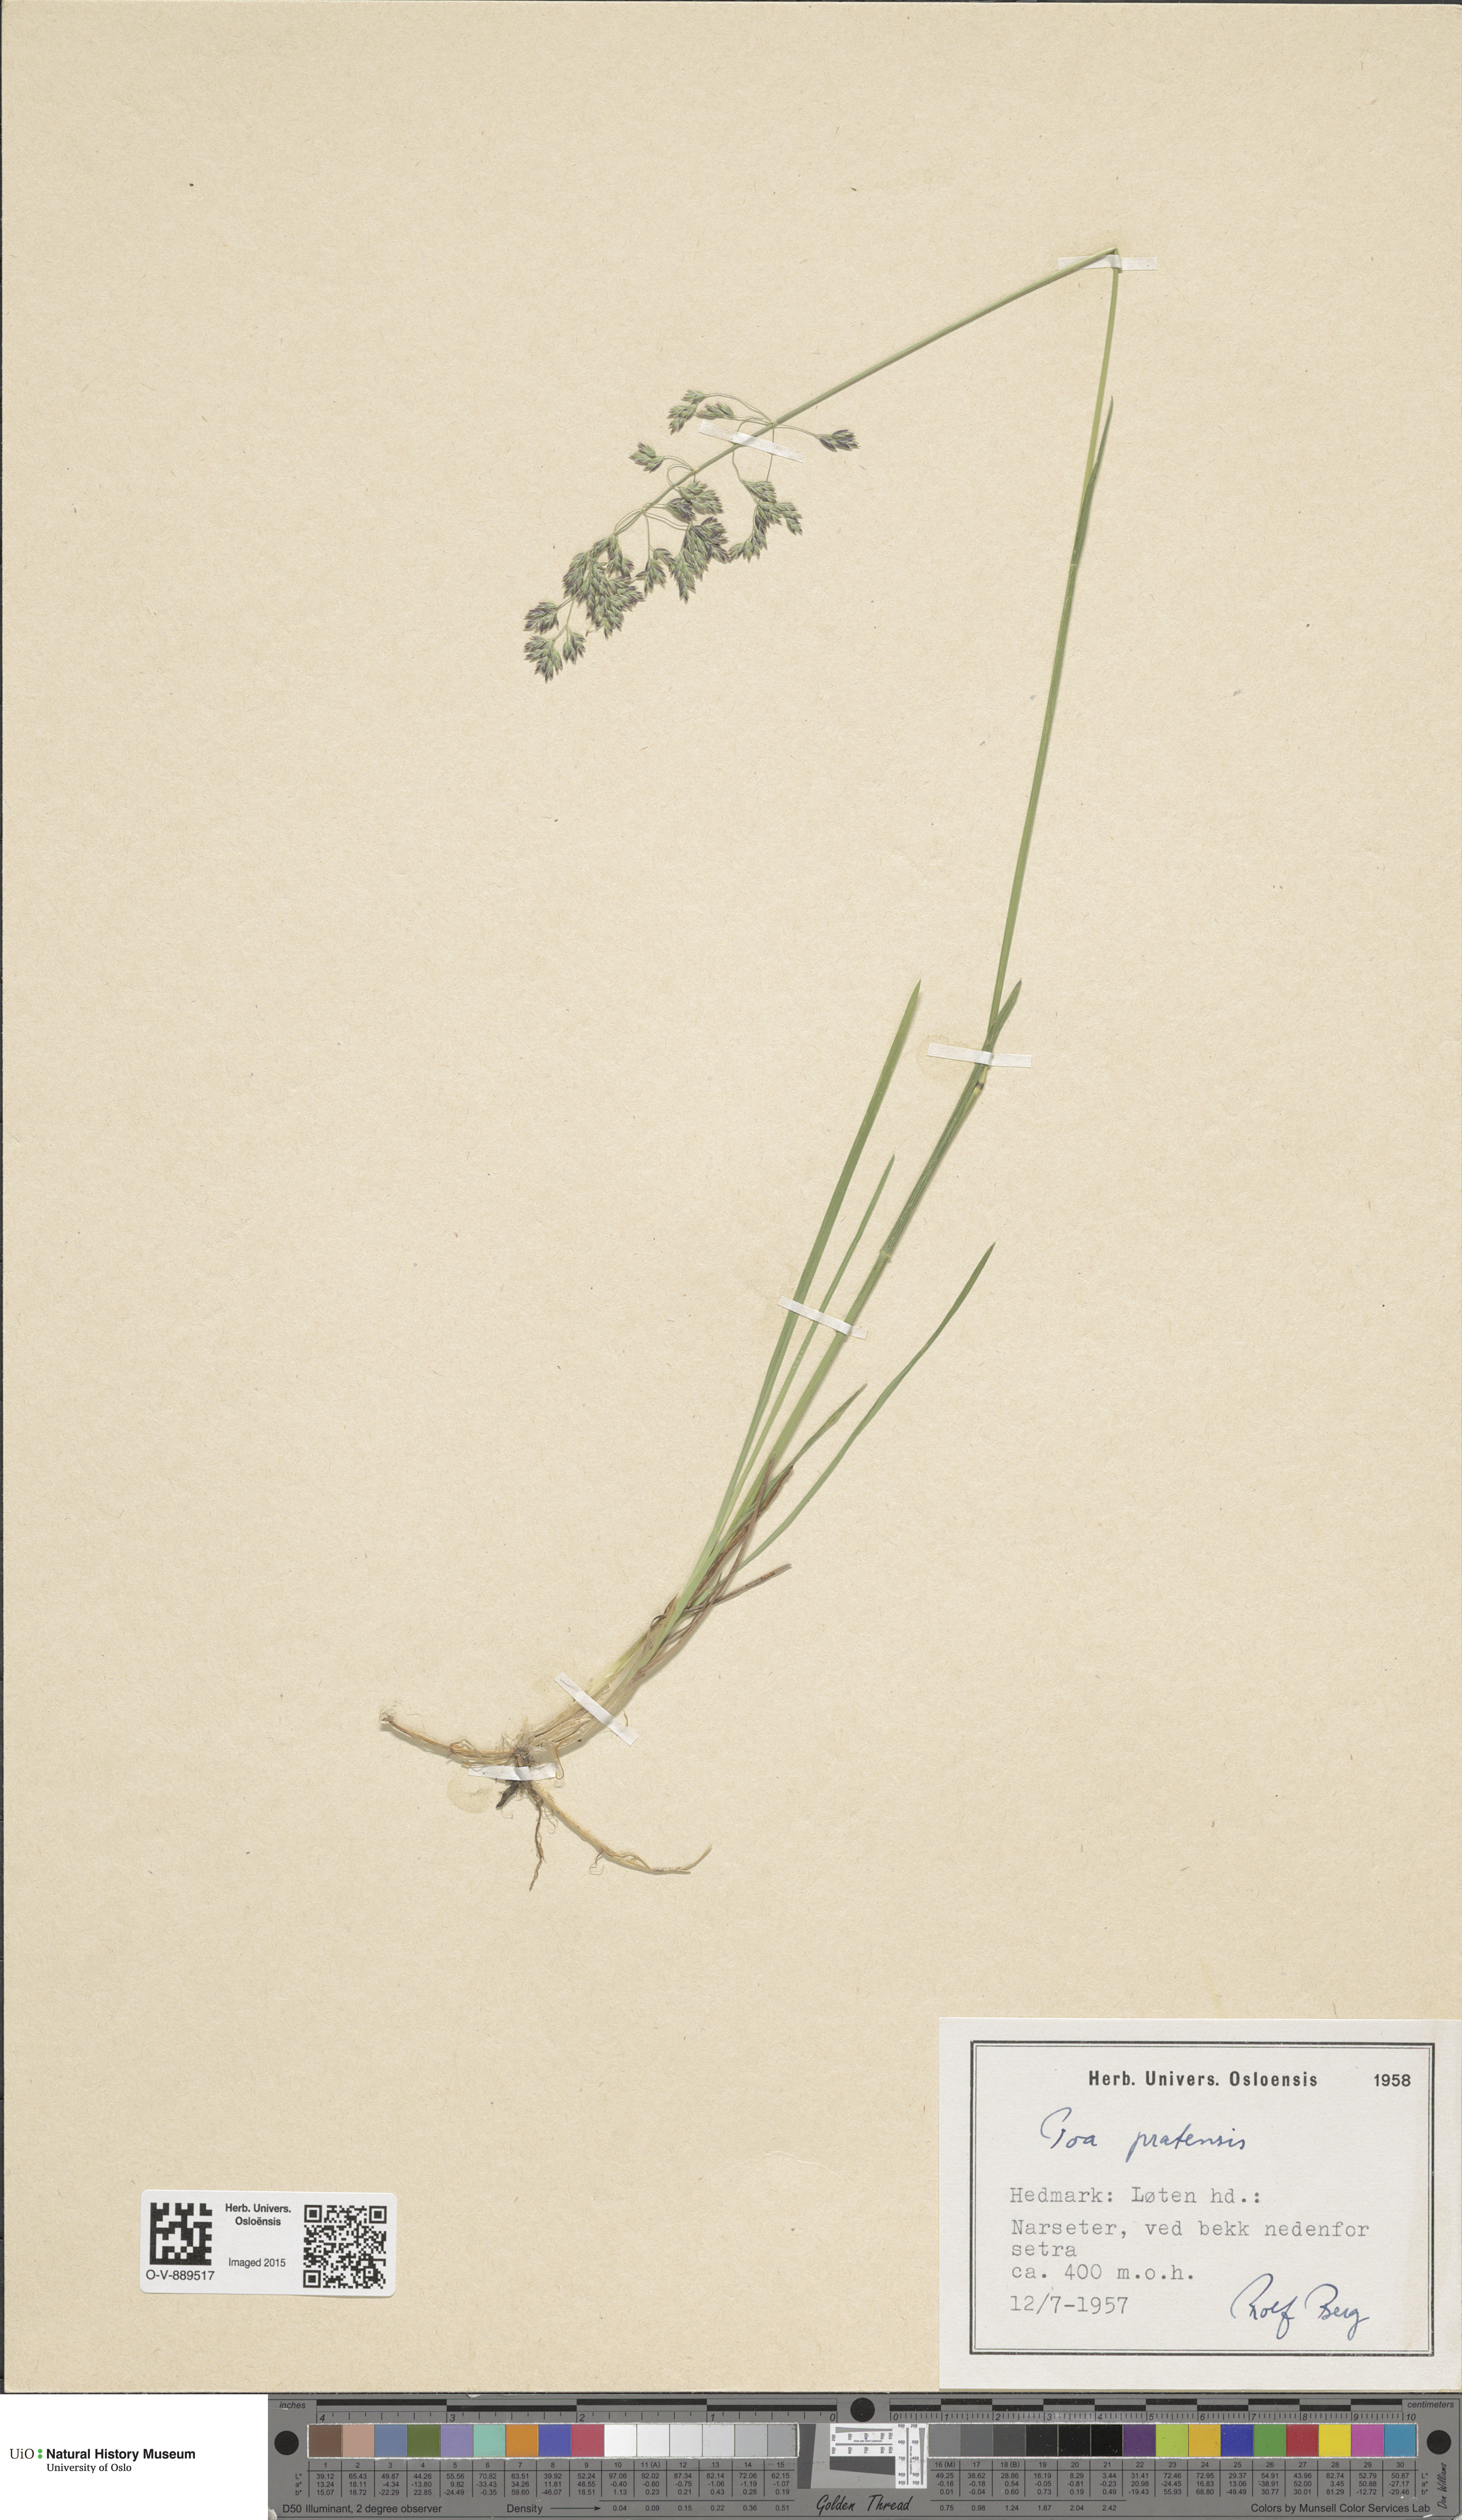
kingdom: Plantae
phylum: Tracheophyta
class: Liliopsida
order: Poales
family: Poaceae
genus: Poa
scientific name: Poa pratensis
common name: Kentucky bluegrass
